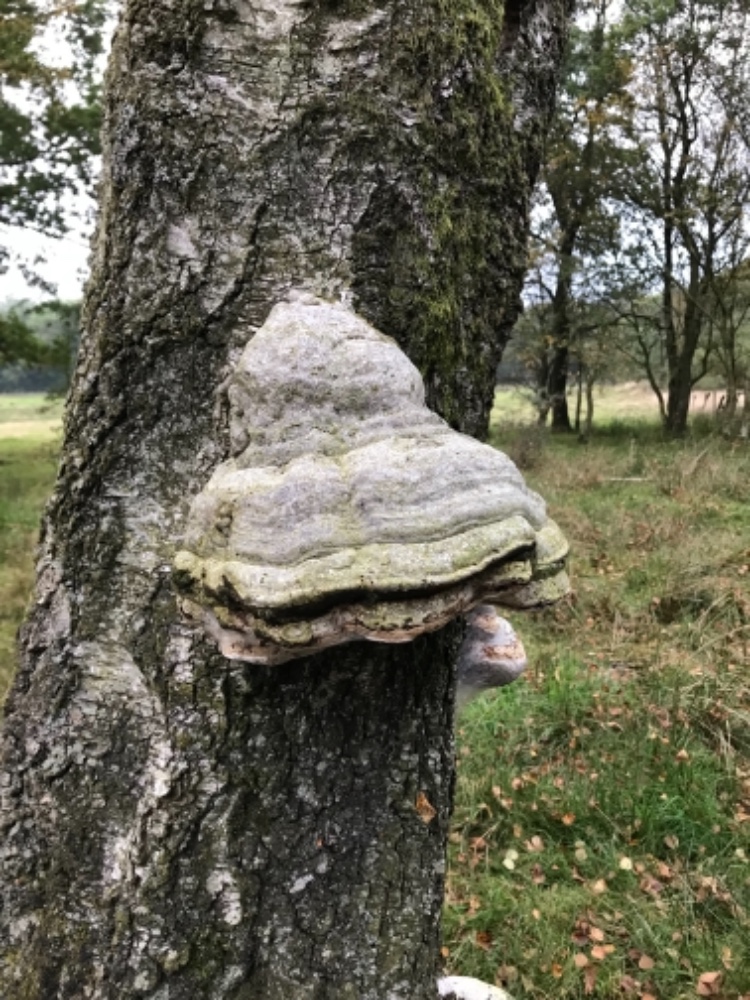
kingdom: Fungi
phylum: Basidiomycota
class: Agaricomycetes
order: Polyporales
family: Polyporaceae
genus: Fomes
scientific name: Fomes fomentarius
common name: tøndersvamp
